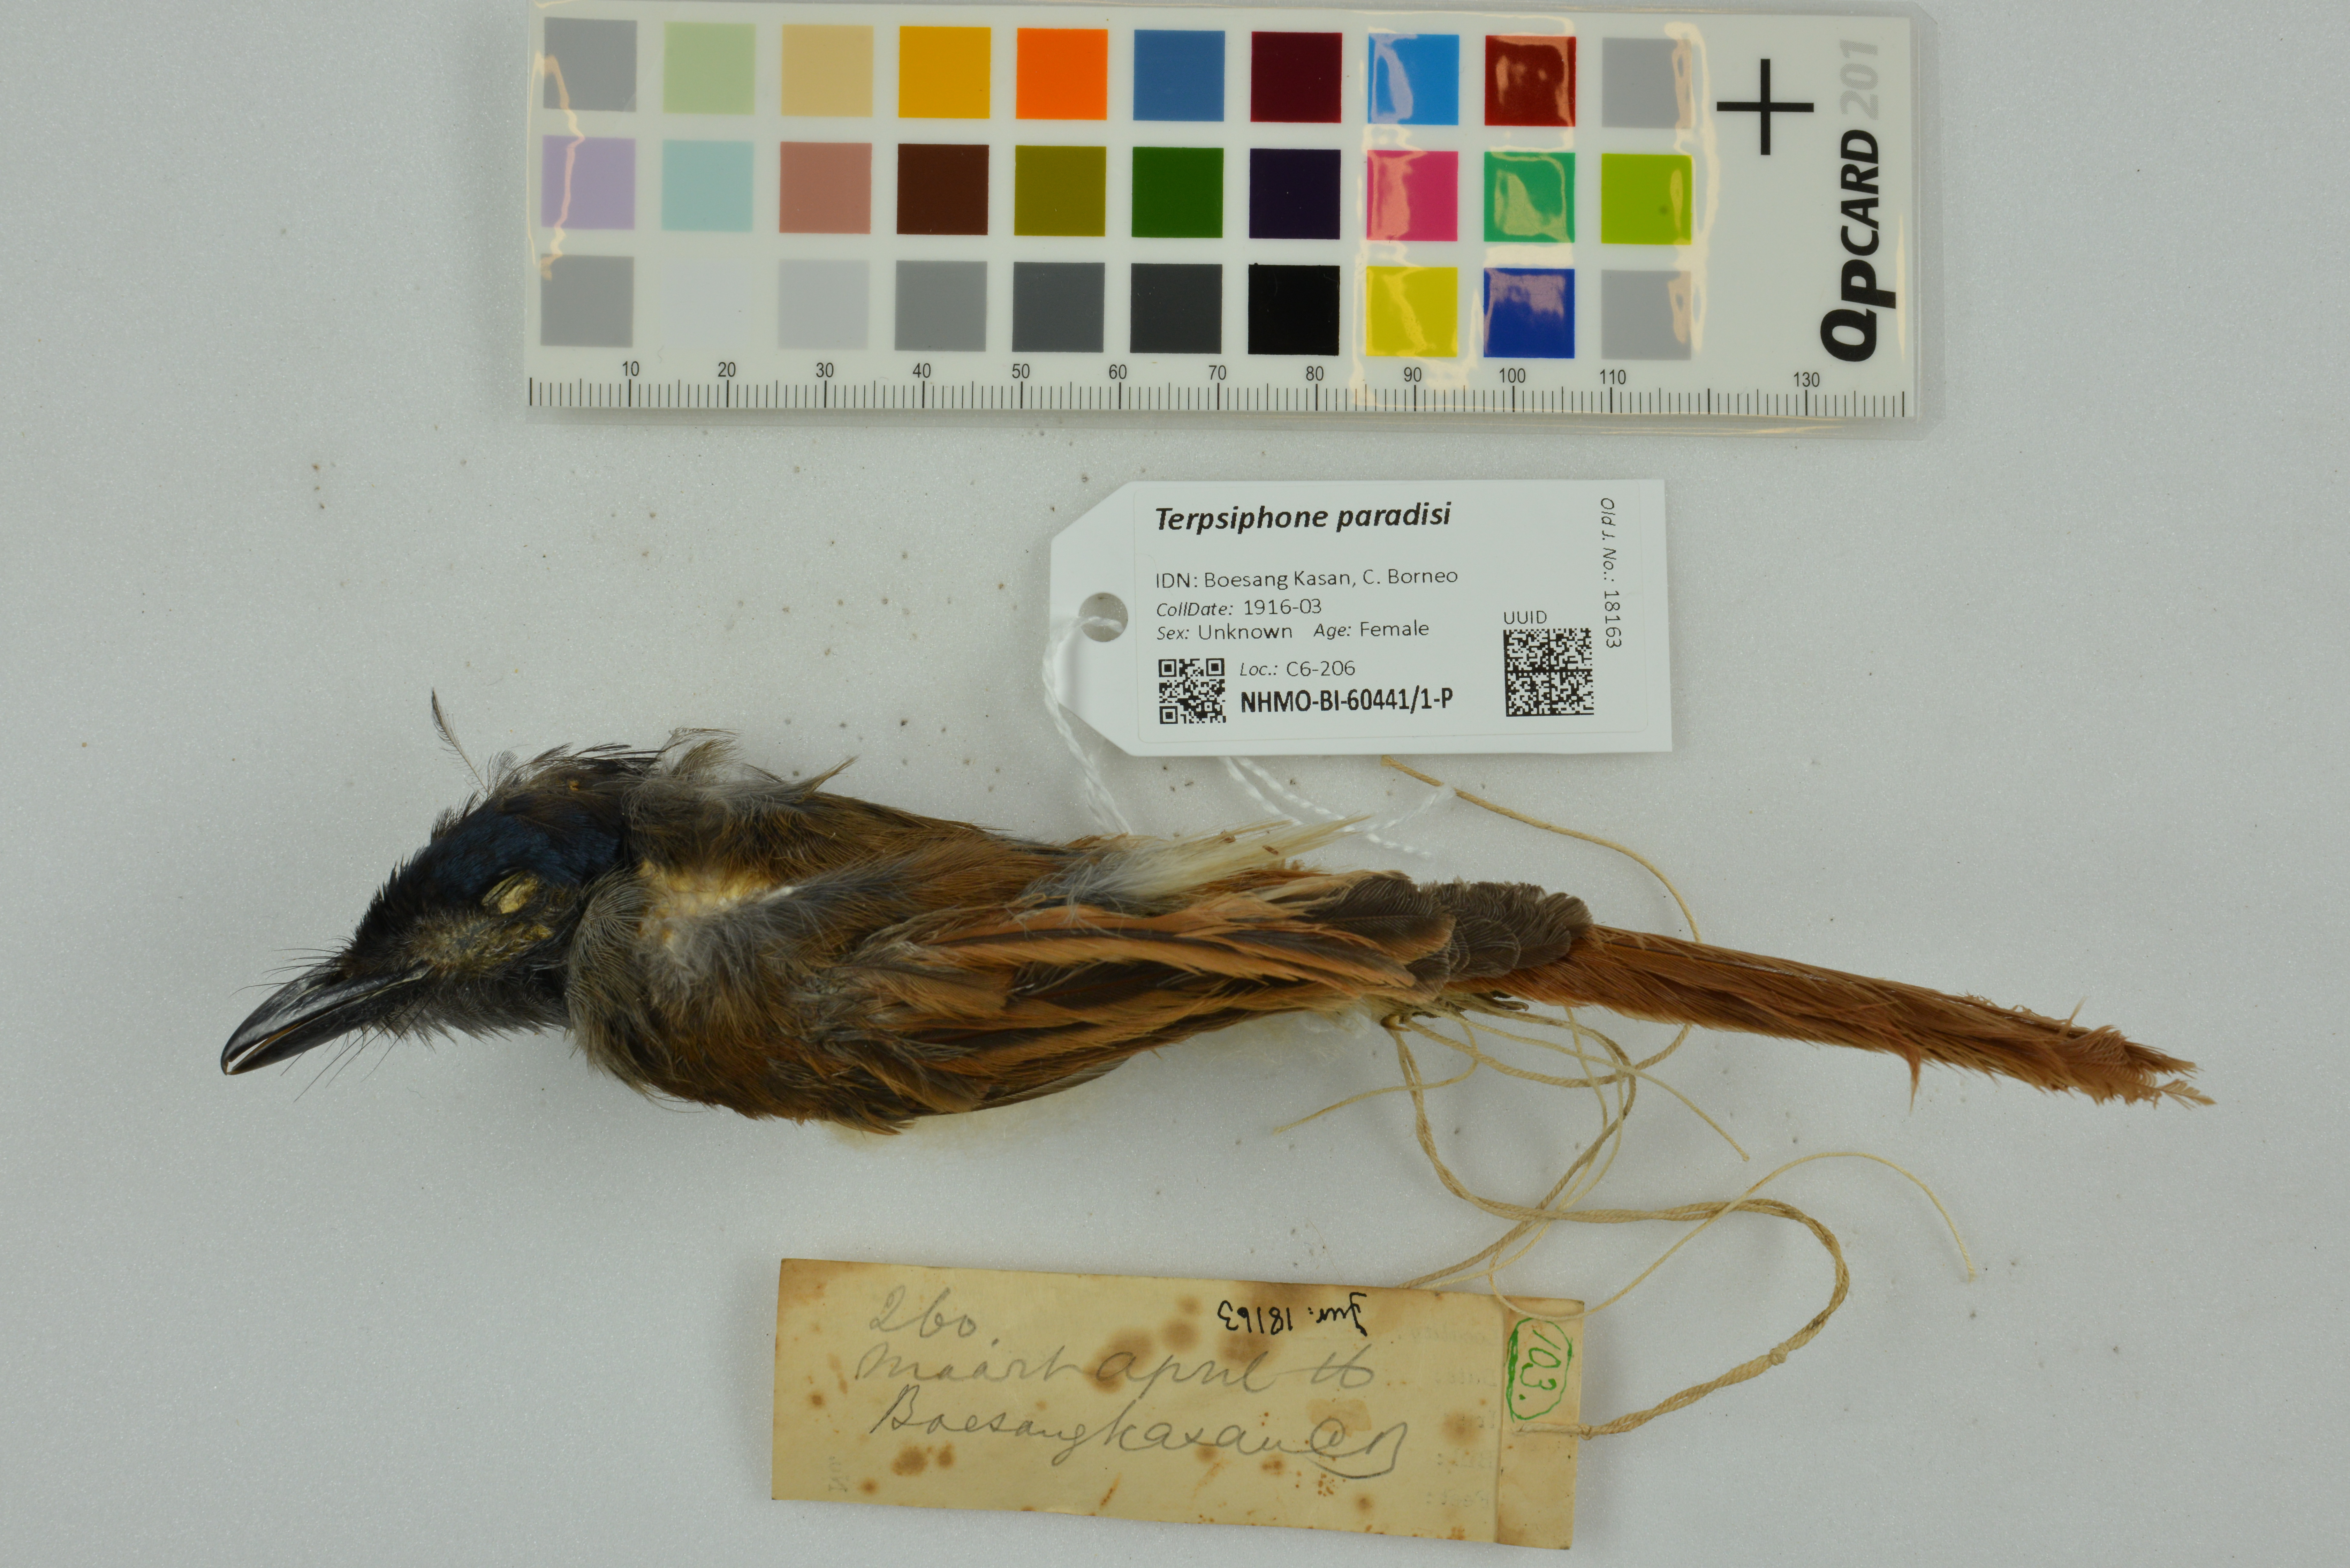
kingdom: Animalia
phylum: Chordata
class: Aves
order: Passeriformes
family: Monarchidae
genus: Terpsiphone
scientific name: Terpsiphone paradisi
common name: Indian paradise flycatcher
